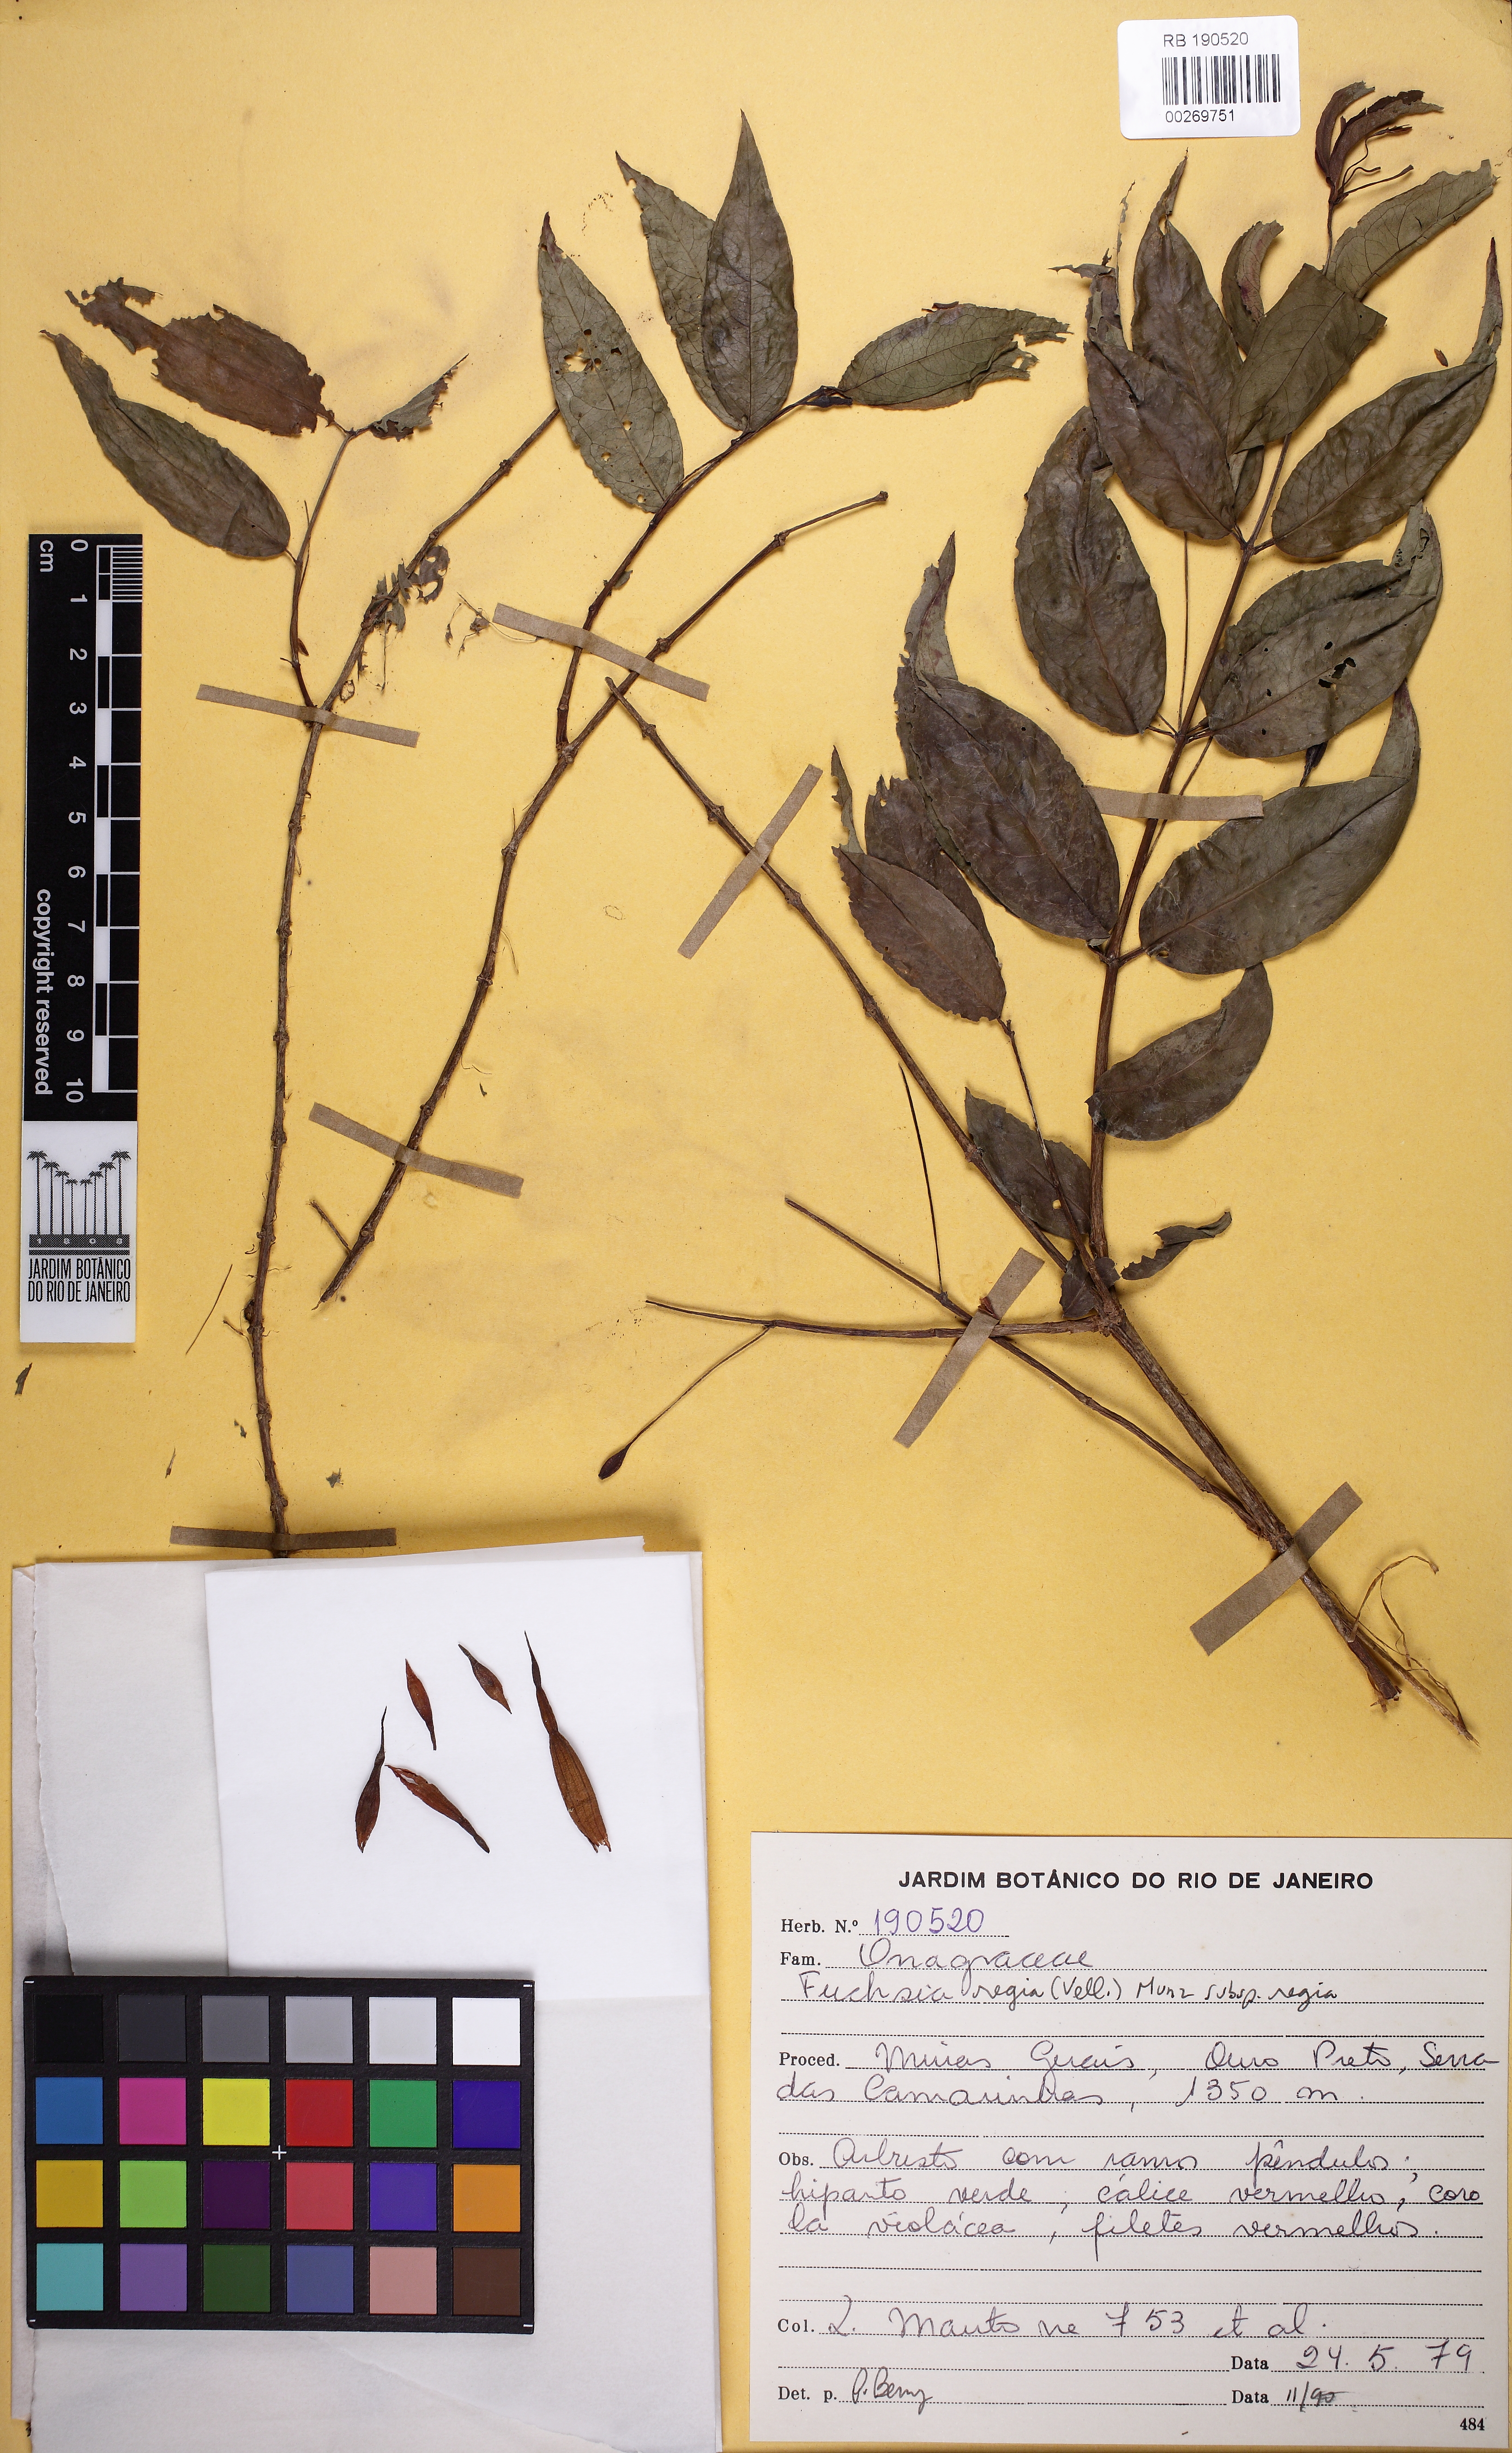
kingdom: Plantae
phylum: Tracheophyta
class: Magnoliopsida
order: Myrtales
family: Onagraceae
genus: Fuchsia
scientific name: Fuchsia regia
